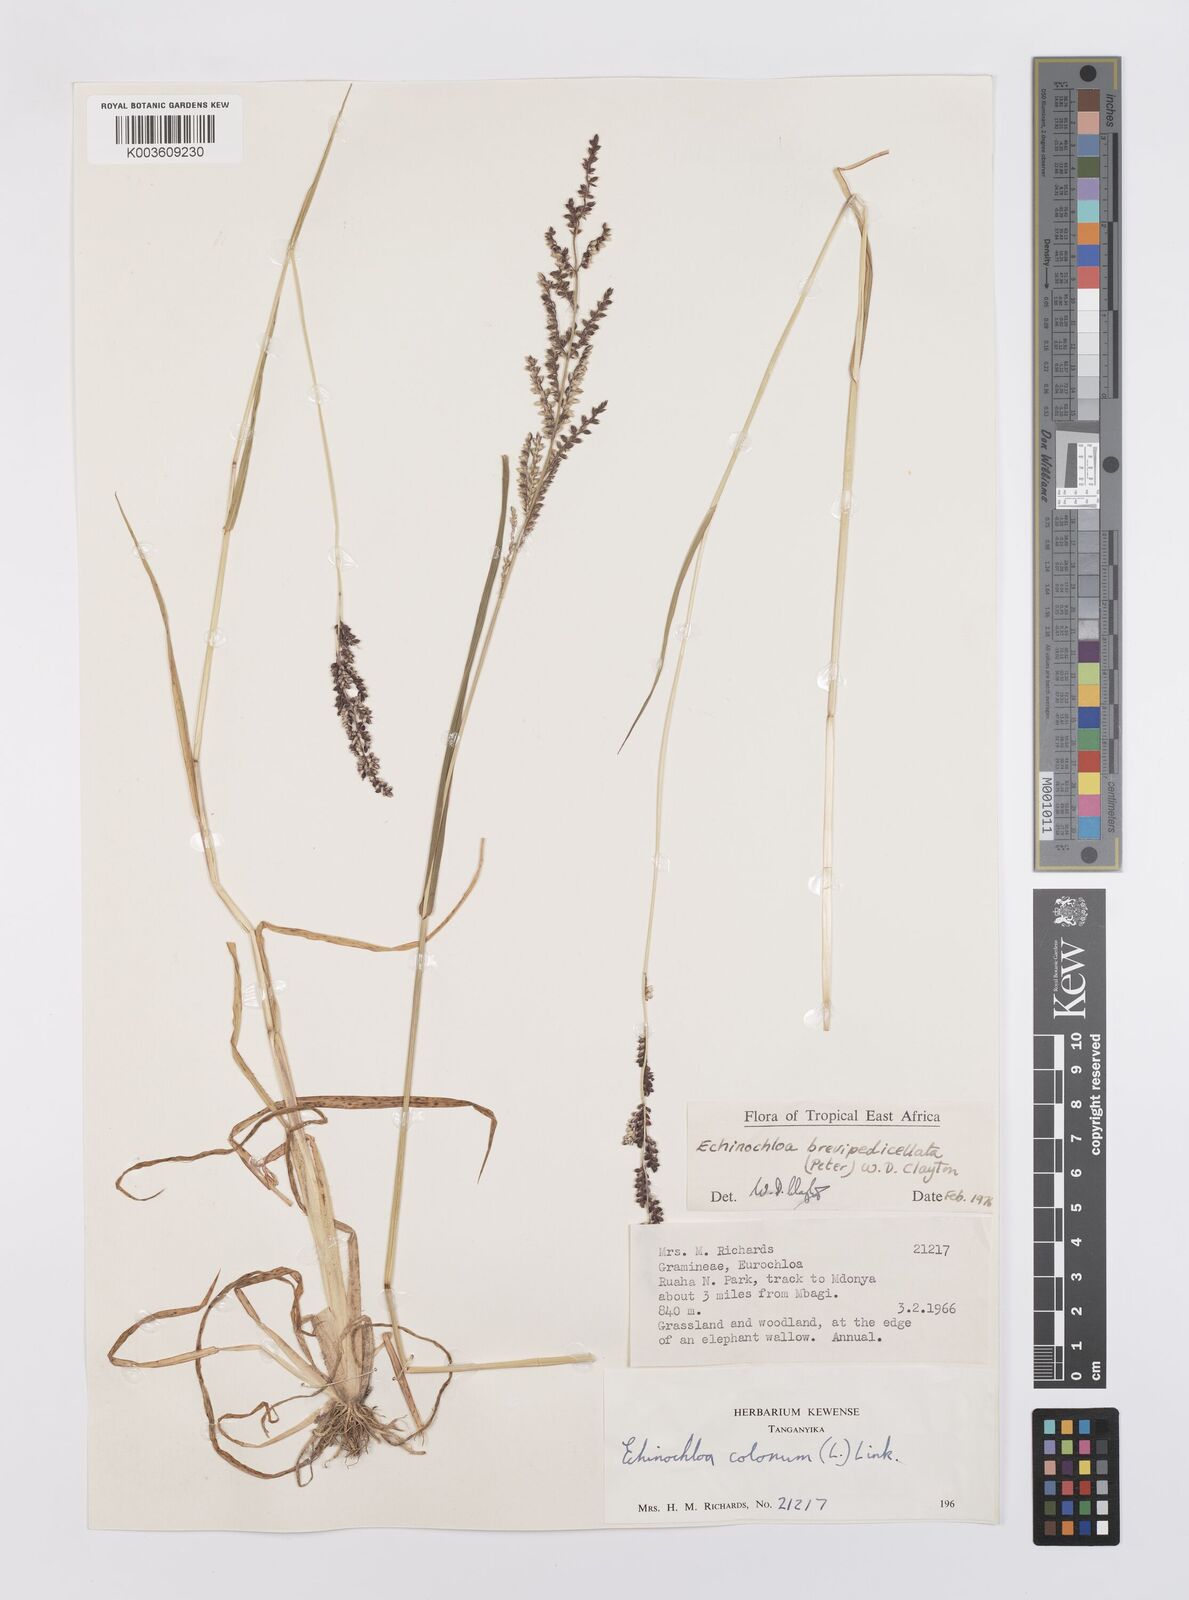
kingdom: Plantae
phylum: Tracheophyta
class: Liliopsida
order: Poales
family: Poaceae
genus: Echinochloa
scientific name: Echinochloa brevipedicellata
